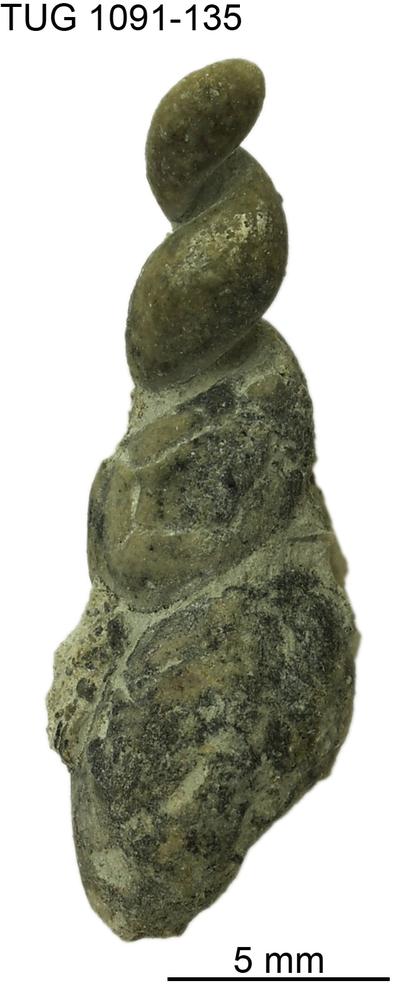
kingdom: Animalia
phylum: Mollusca
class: Gastropoda
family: Loxonematidae
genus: Loxonema
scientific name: Loxonema
